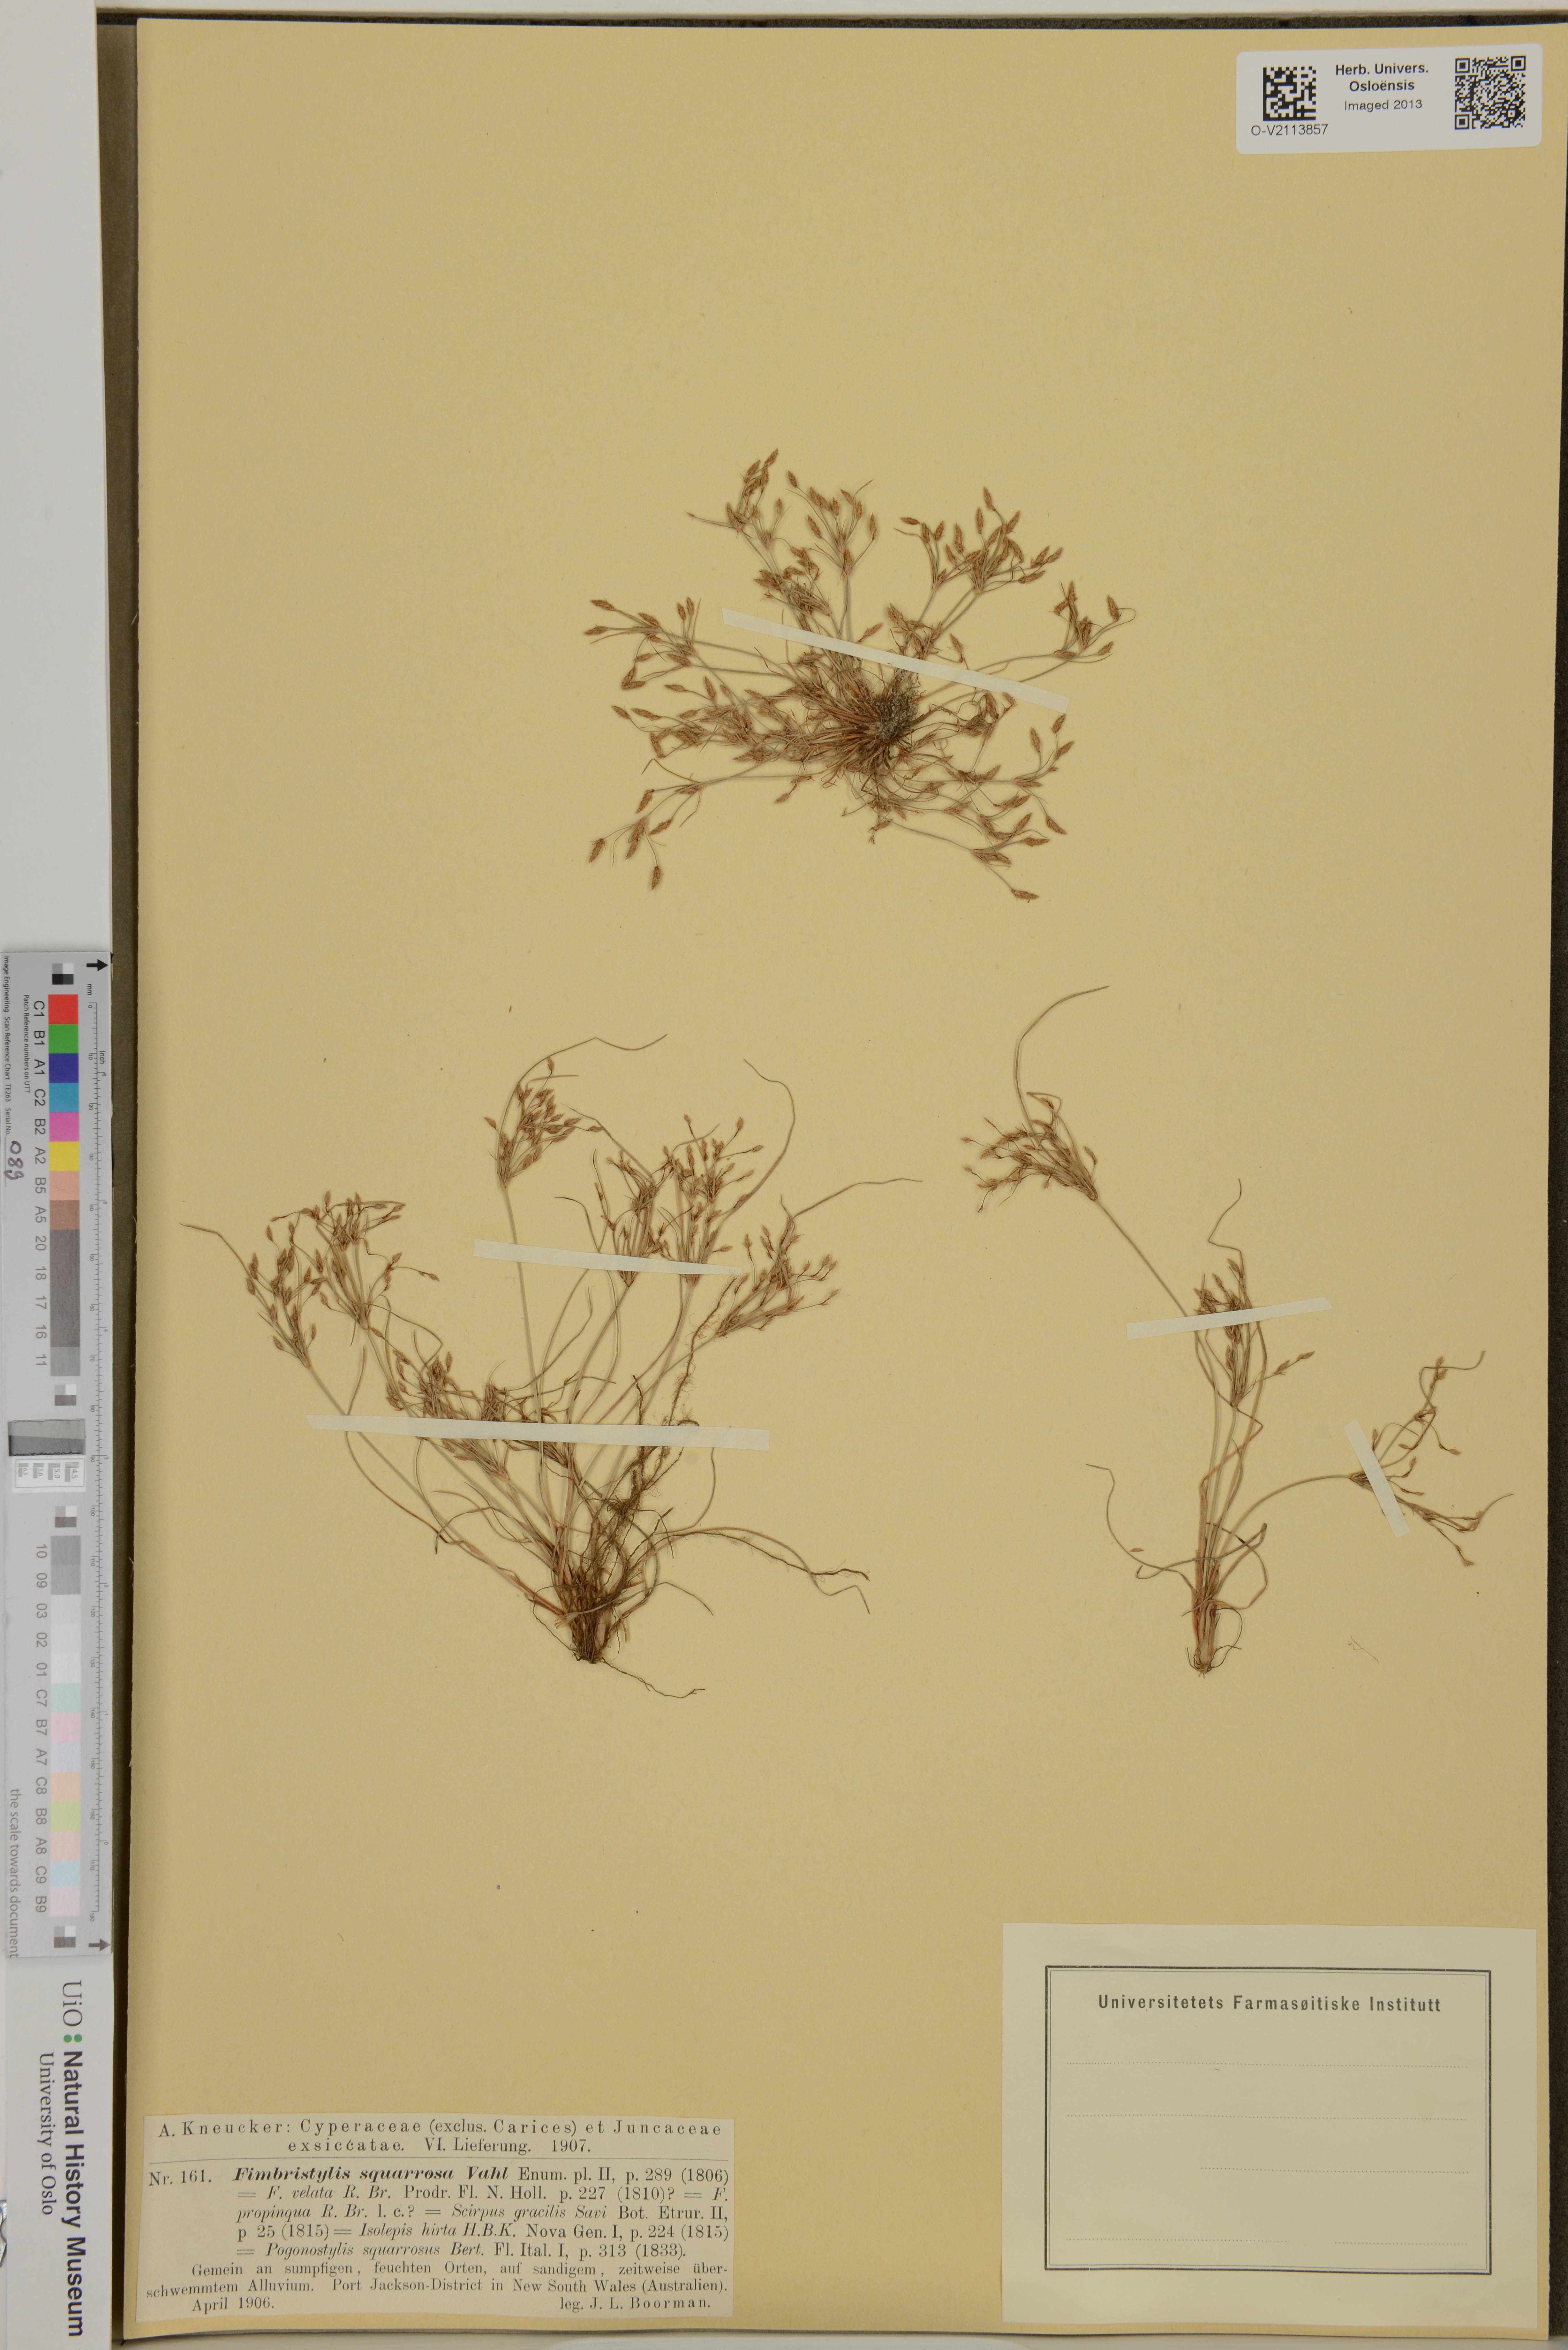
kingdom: Plantae
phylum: Tracheophyta
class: Liliopsida
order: Poales
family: Cyperaceae
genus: Fimbristylis
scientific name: Fimbristylis squarrosa
